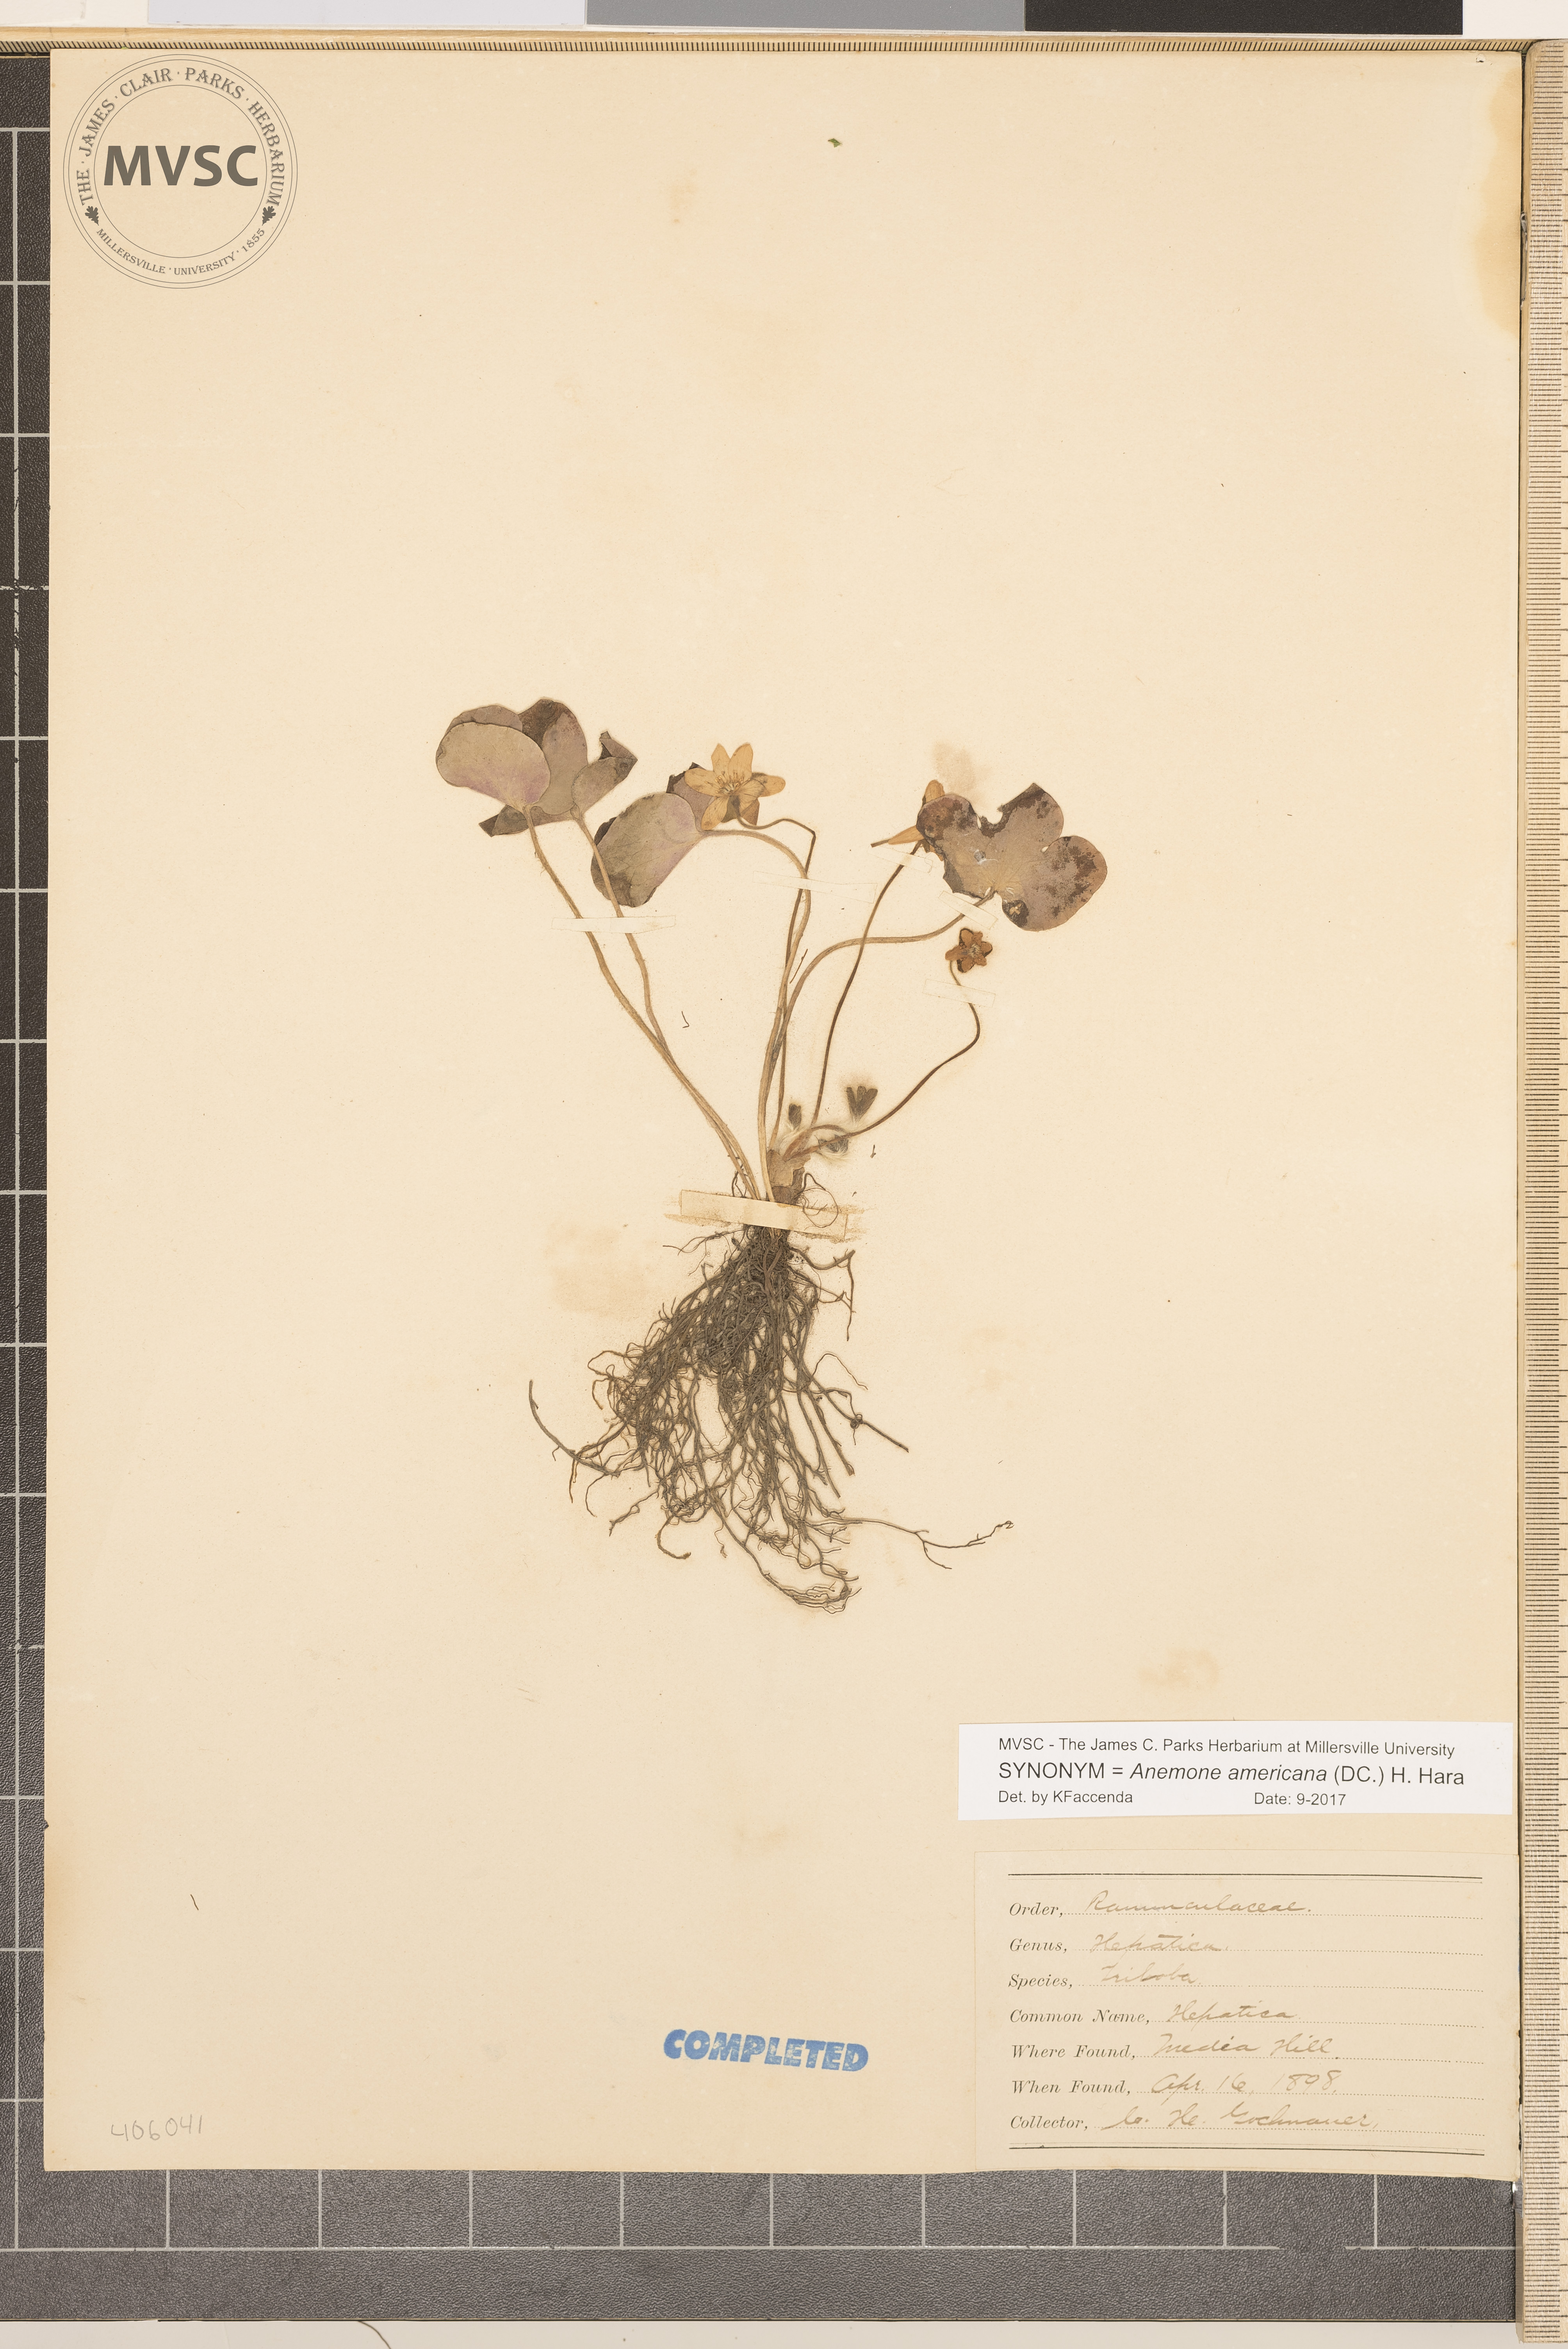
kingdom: Plantae
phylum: Tracheophyta
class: Magnoliopsida
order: Ranunculales
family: Ranunculaceae
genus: Hepatica
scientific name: Hepatica americana
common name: American hepatica
